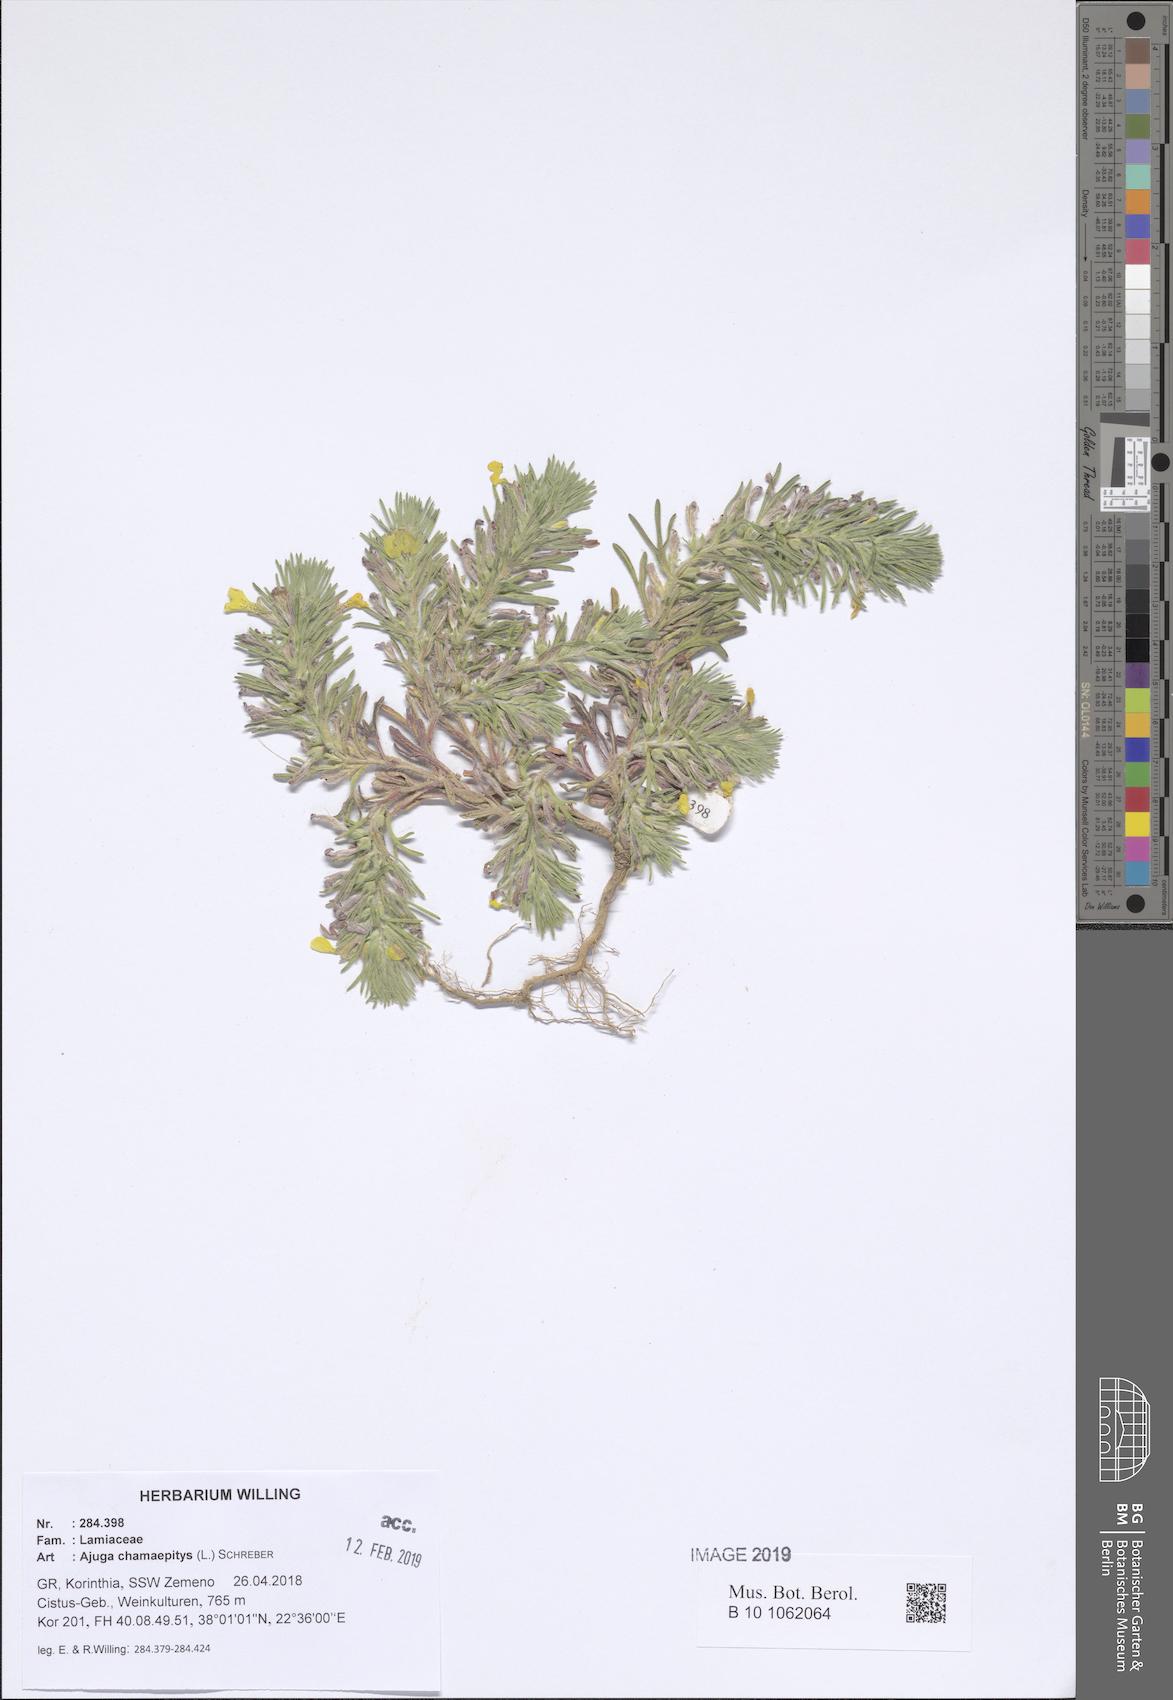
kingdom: Plantae
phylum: Tracheophyta
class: Magnoliopsida
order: Lamiales
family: Lamiaceae
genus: Ajuga
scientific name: Ajuga chamaepitys
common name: Ground-pine
